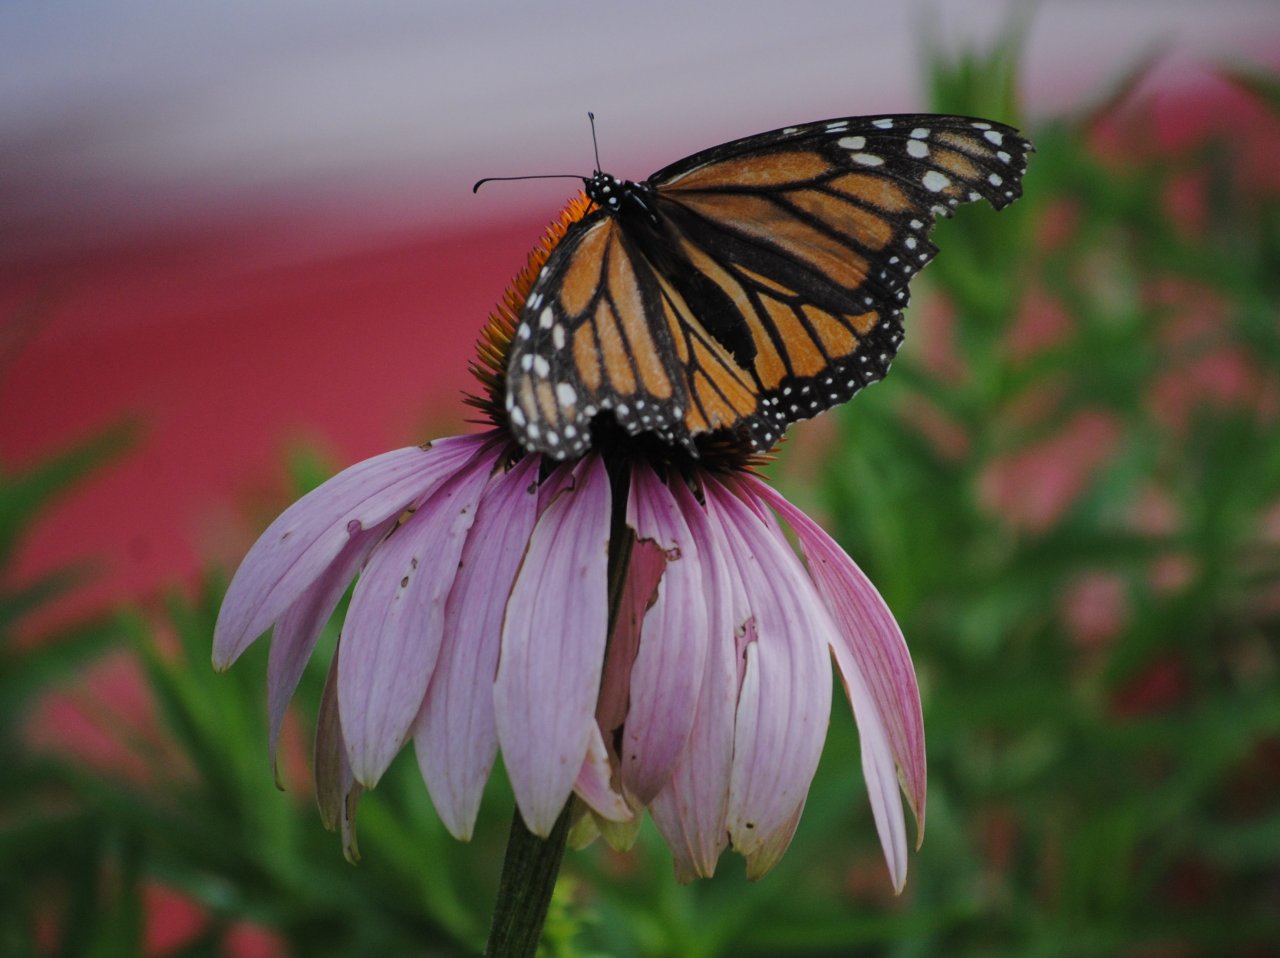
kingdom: Animalia
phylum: Arthropoda
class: Insecta
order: Lepidoptera
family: Nymphalidae
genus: Danaus
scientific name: Danaus plexippus
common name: Monarch
